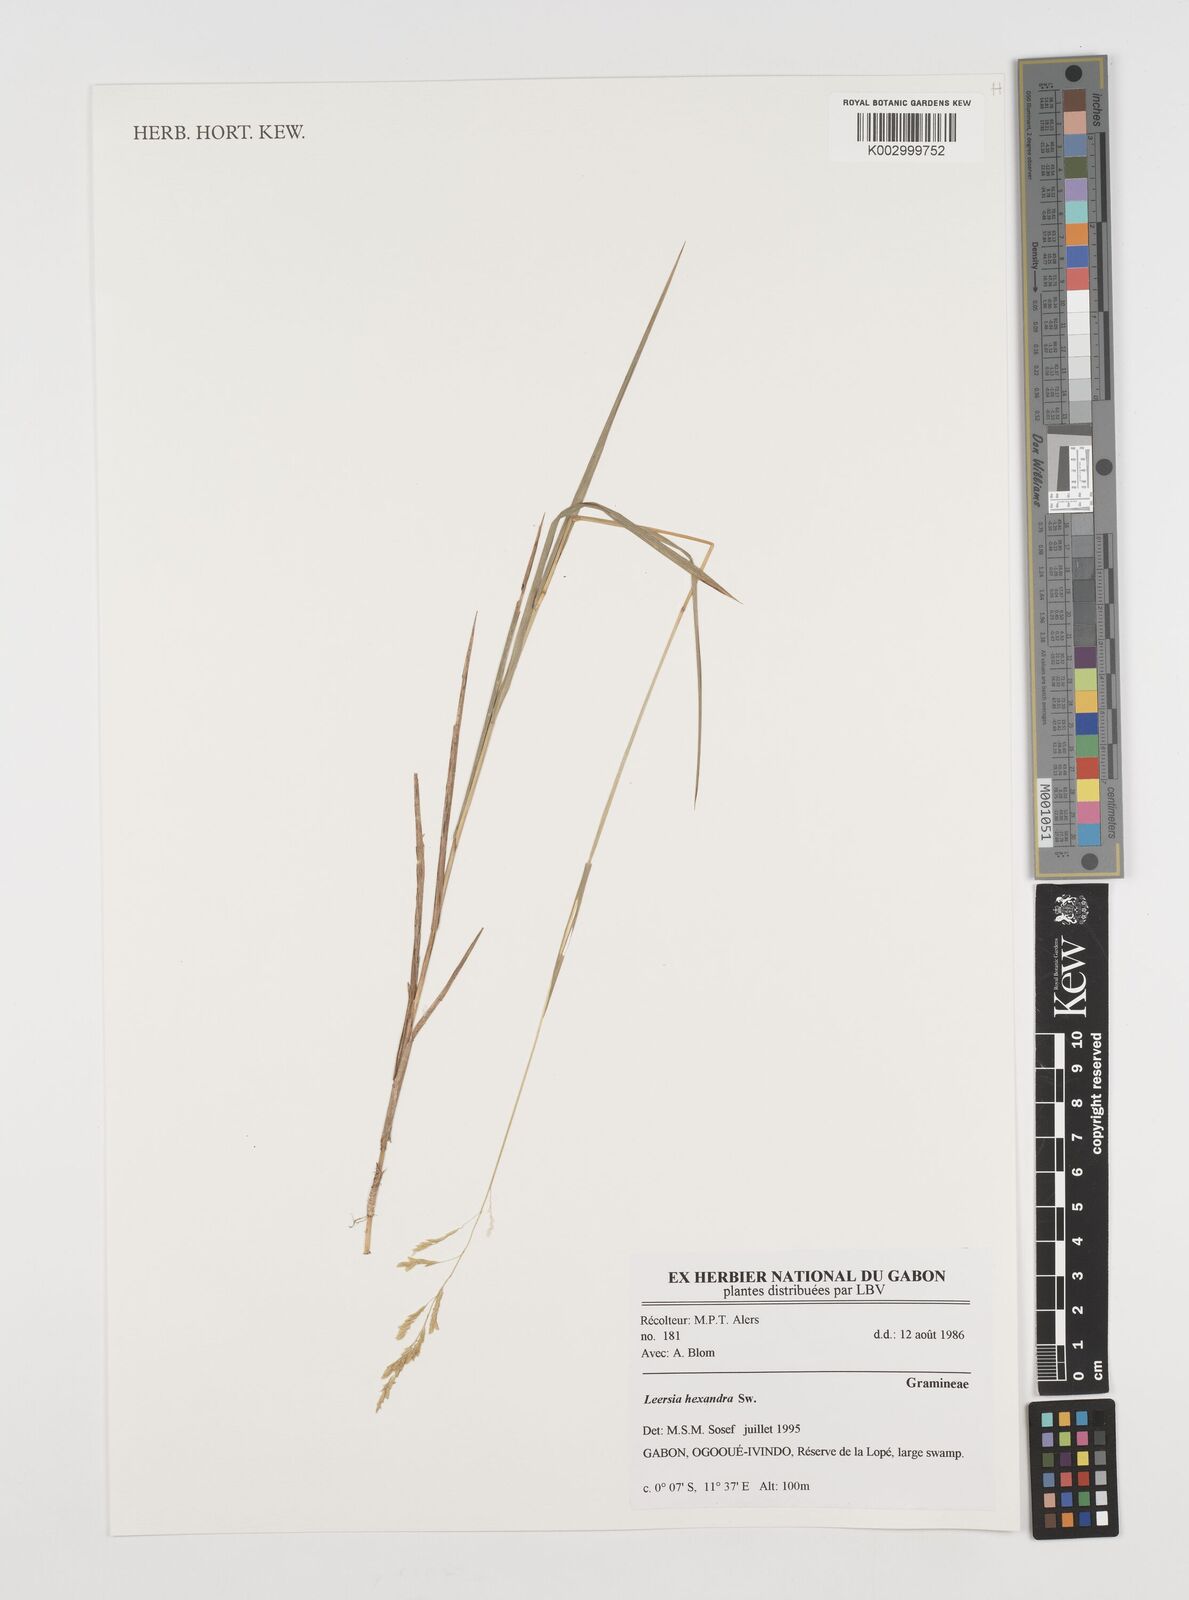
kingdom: Plantae
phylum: Tracheophyta
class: Liliopsida
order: Poales
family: Poaceae
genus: Leersia
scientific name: Leersia hexandra
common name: Southern cut grass
